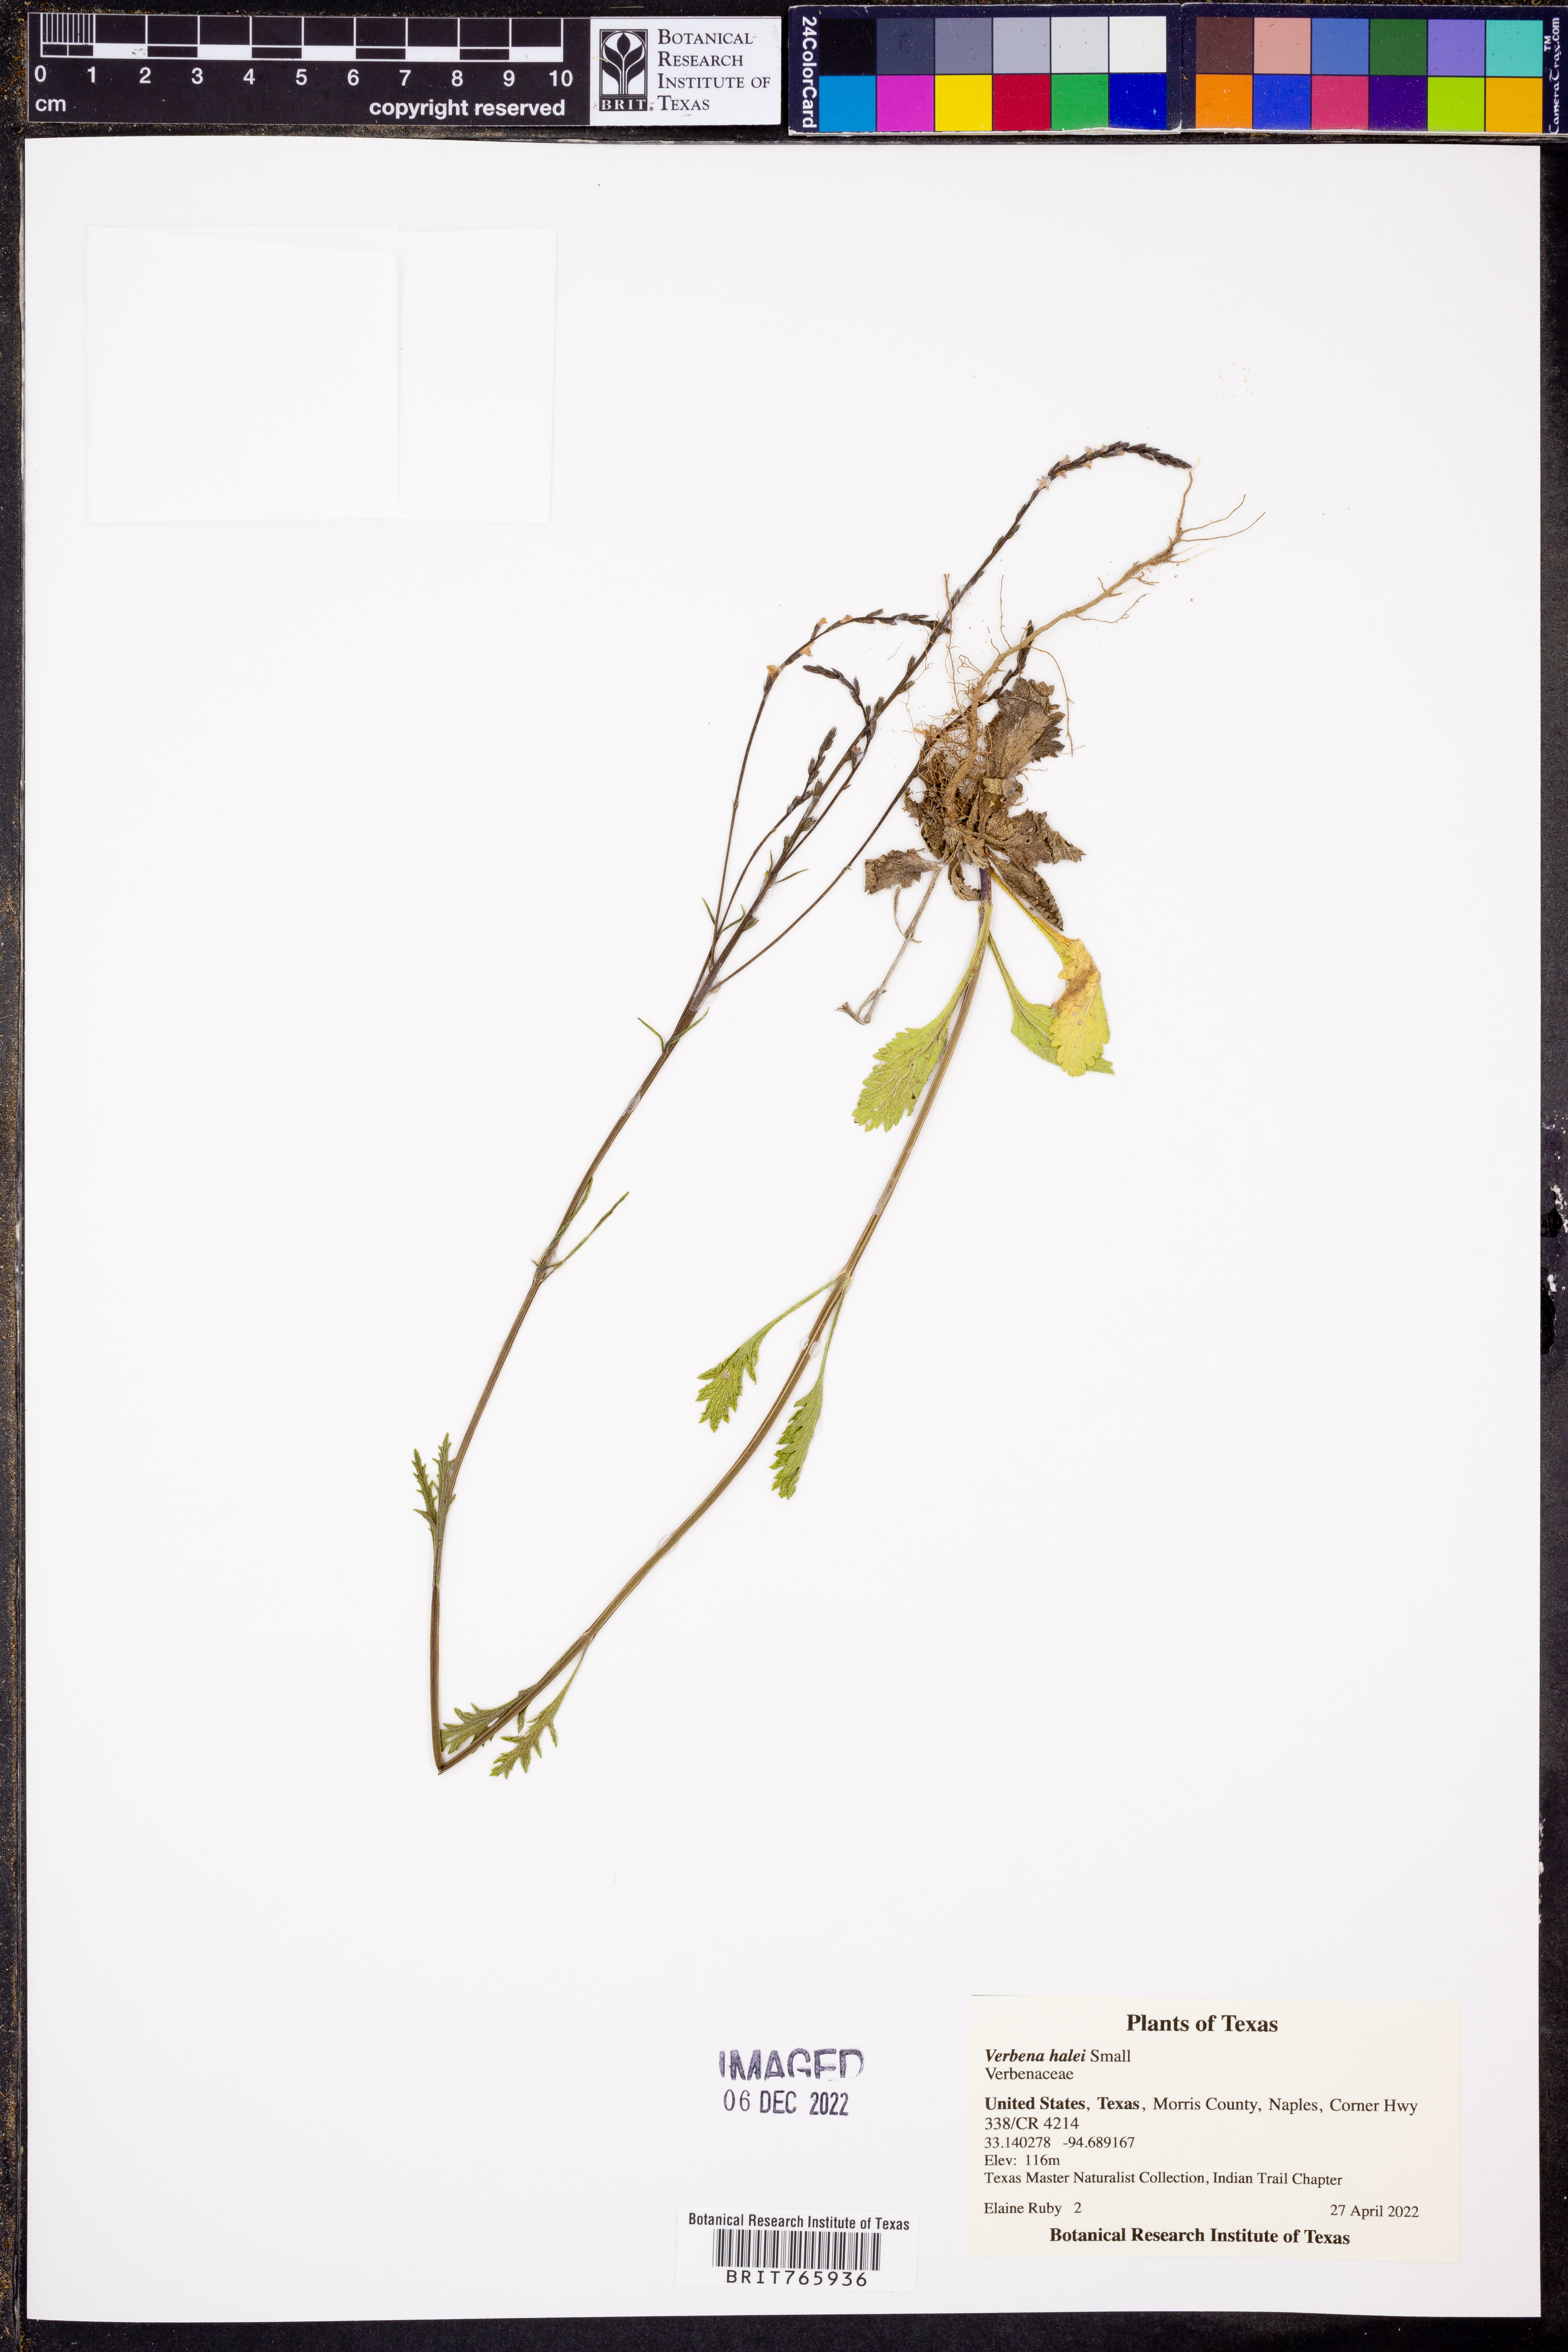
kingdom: Plantae
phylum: Tracheophyta
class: Magnoliopsida
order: Lamiales
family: Verbenaceae
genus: Verbena
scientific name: Verbena halei
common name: Texas vervain
